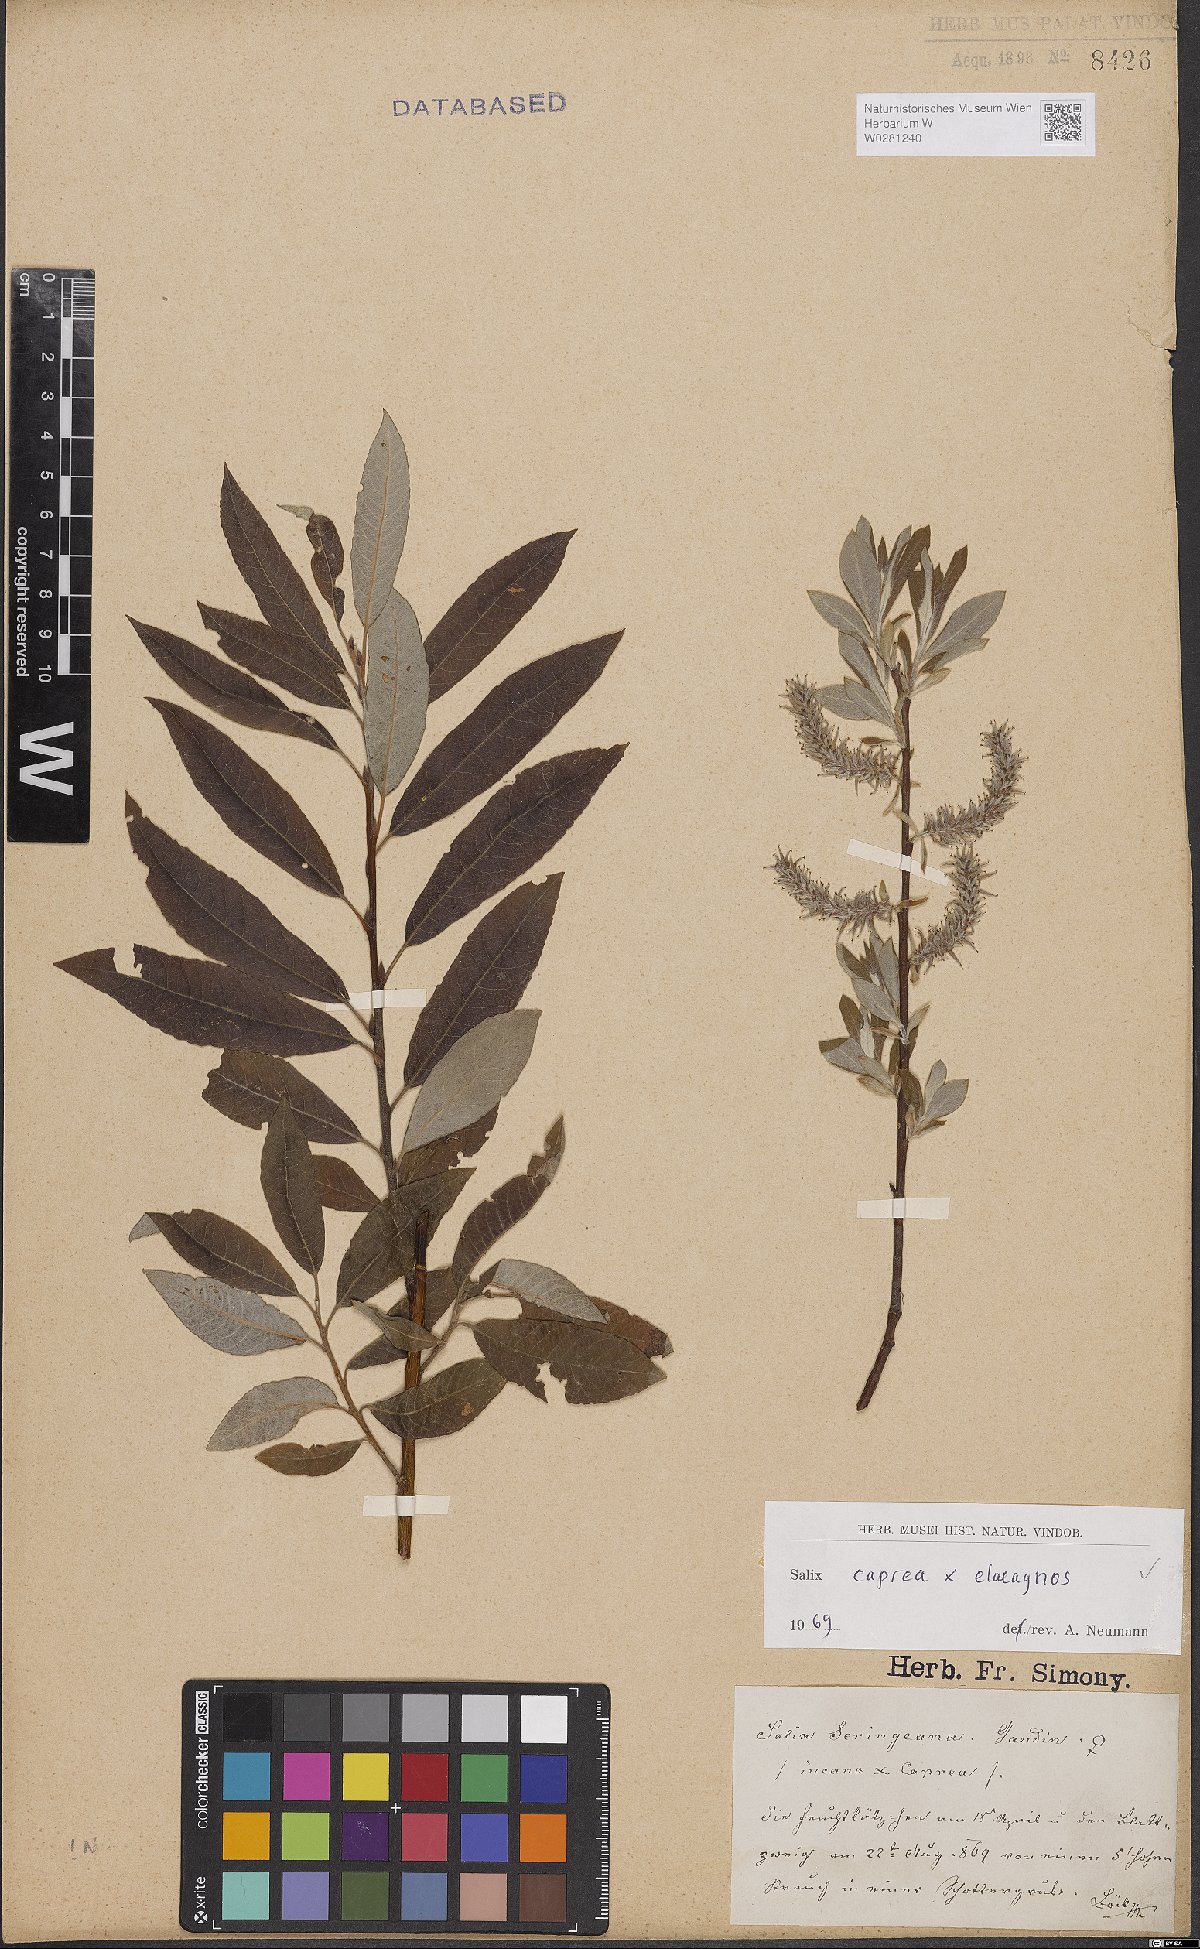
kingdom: Plantae
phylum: Tracheophyta
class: Magnoliopsida
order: Malpighiales
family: Salicaceae
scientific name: Salicaceae
